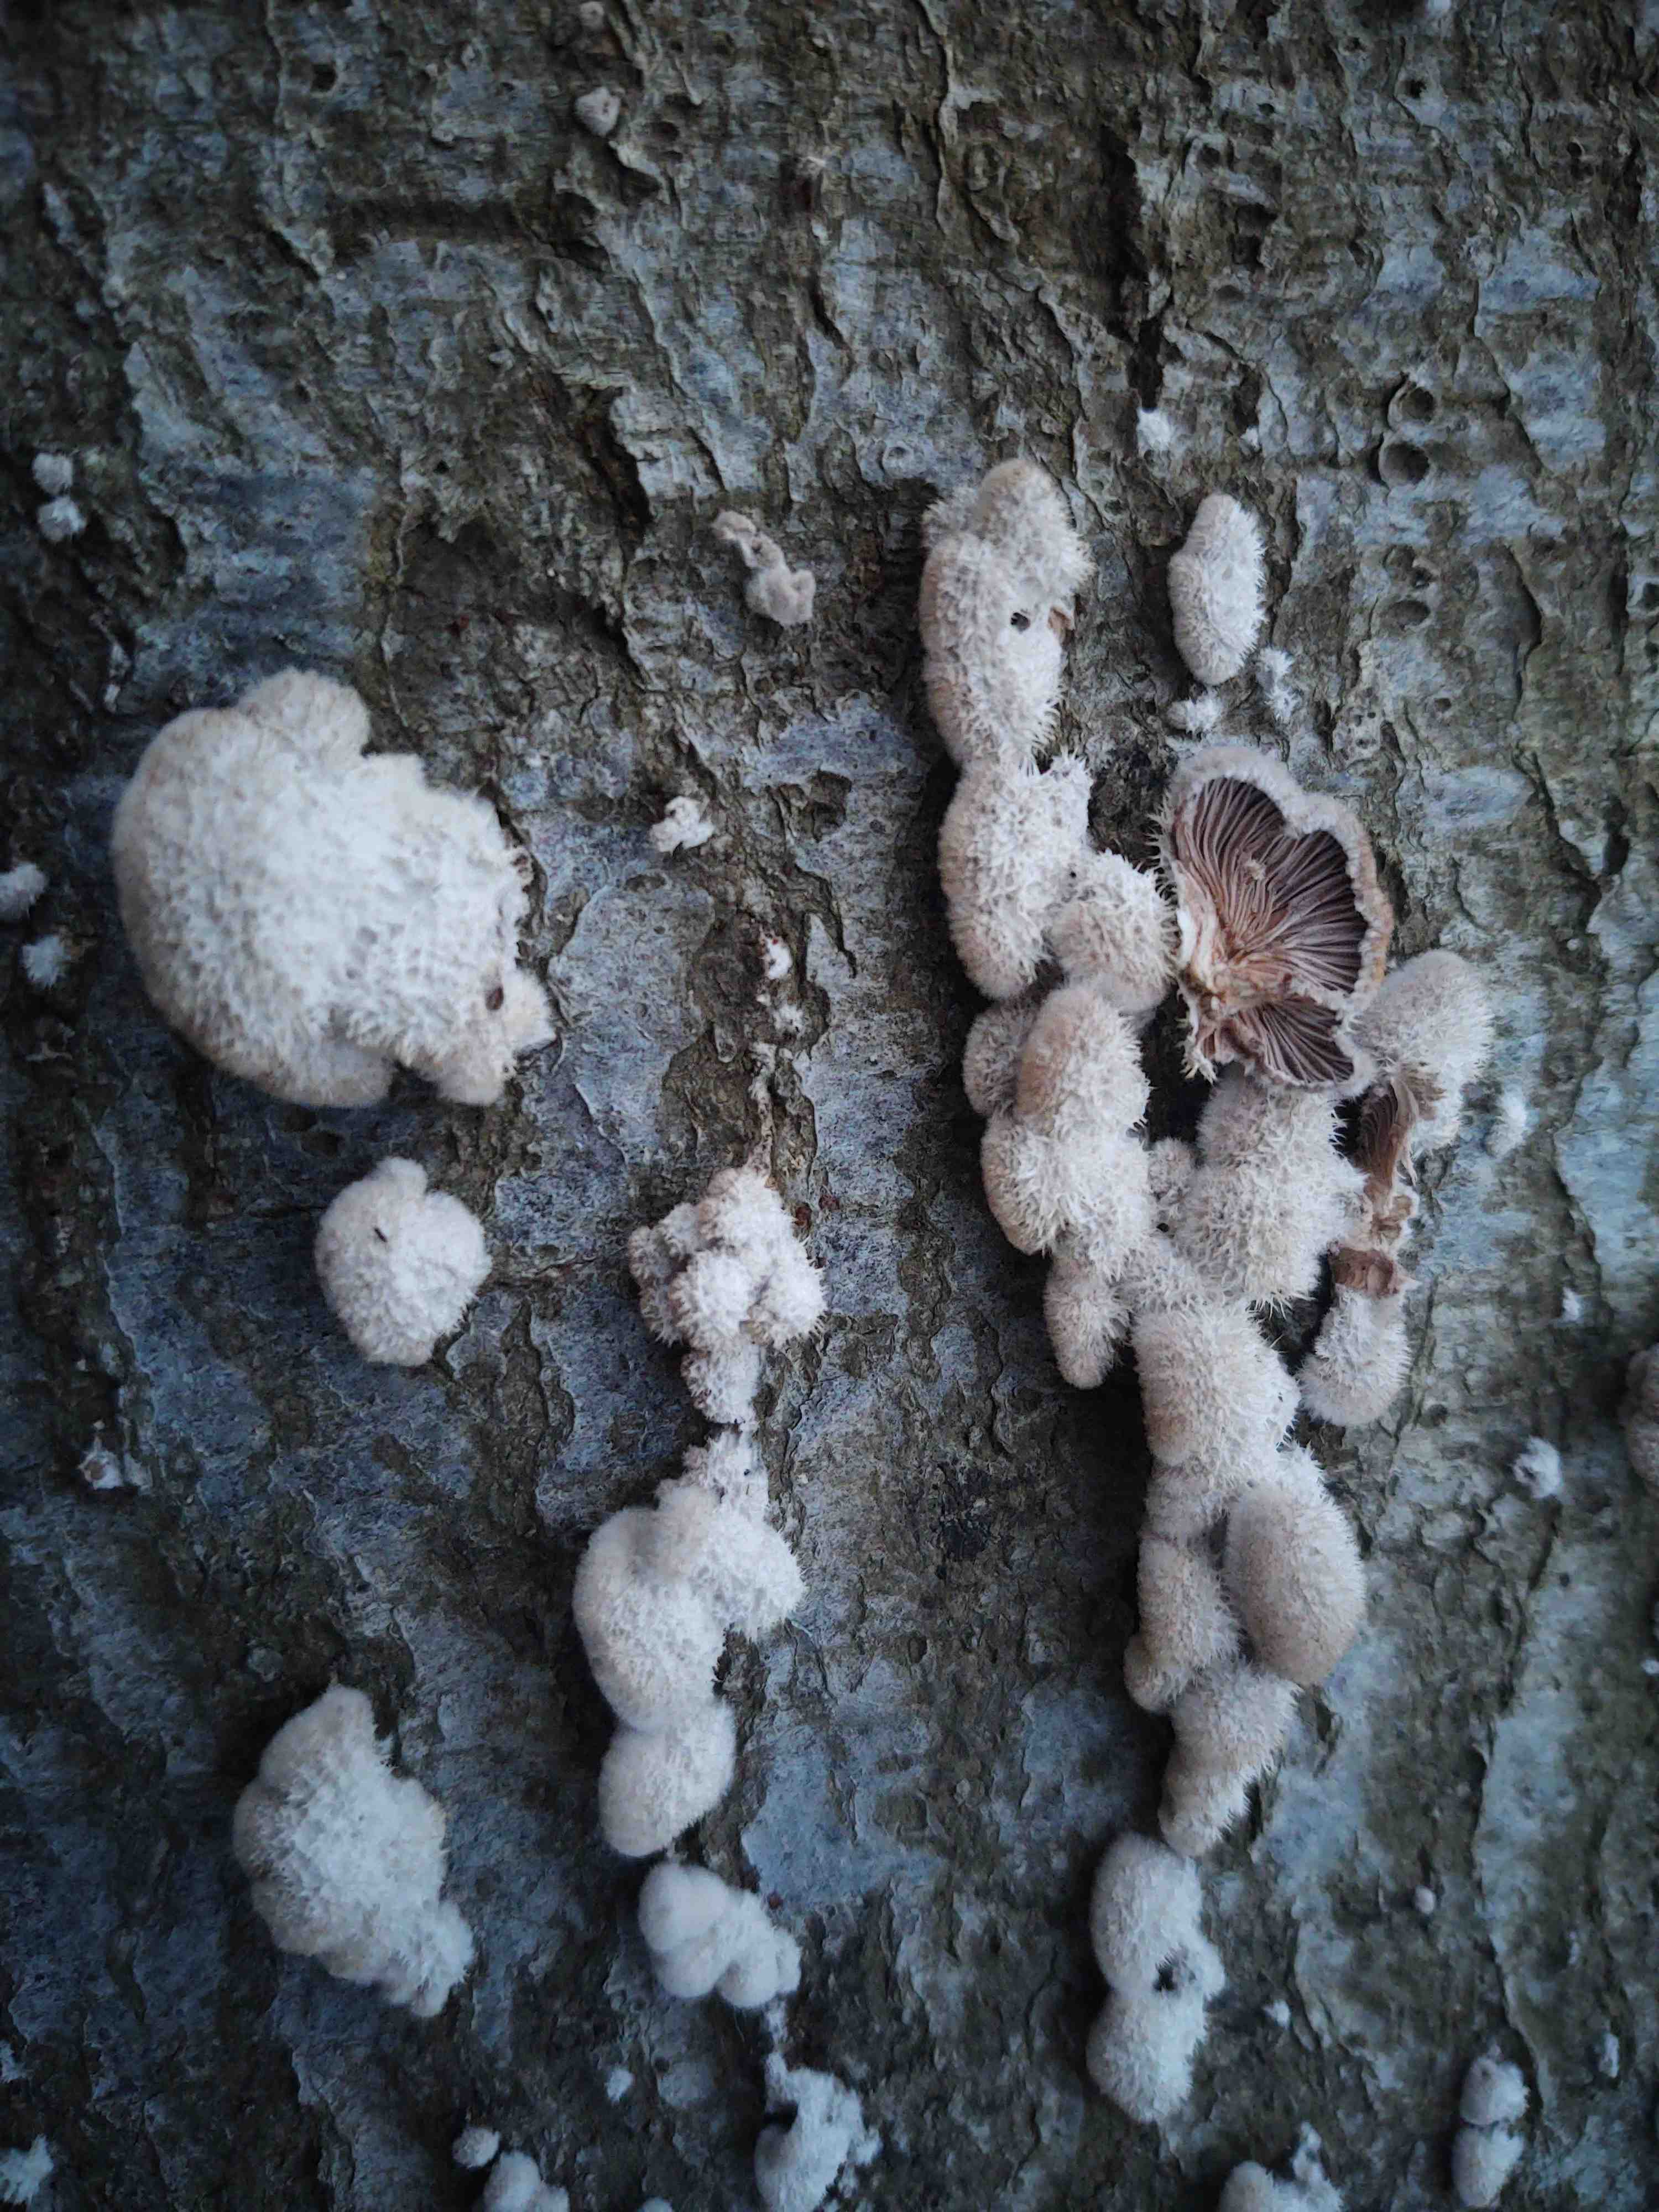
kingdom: Fungi
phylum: Basidiomycota
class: Agaricomycetes
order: Agaricales
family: Schizophyllaceae
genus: Schizophyllum
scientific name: Schizophyllum commune
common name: kløvblad
